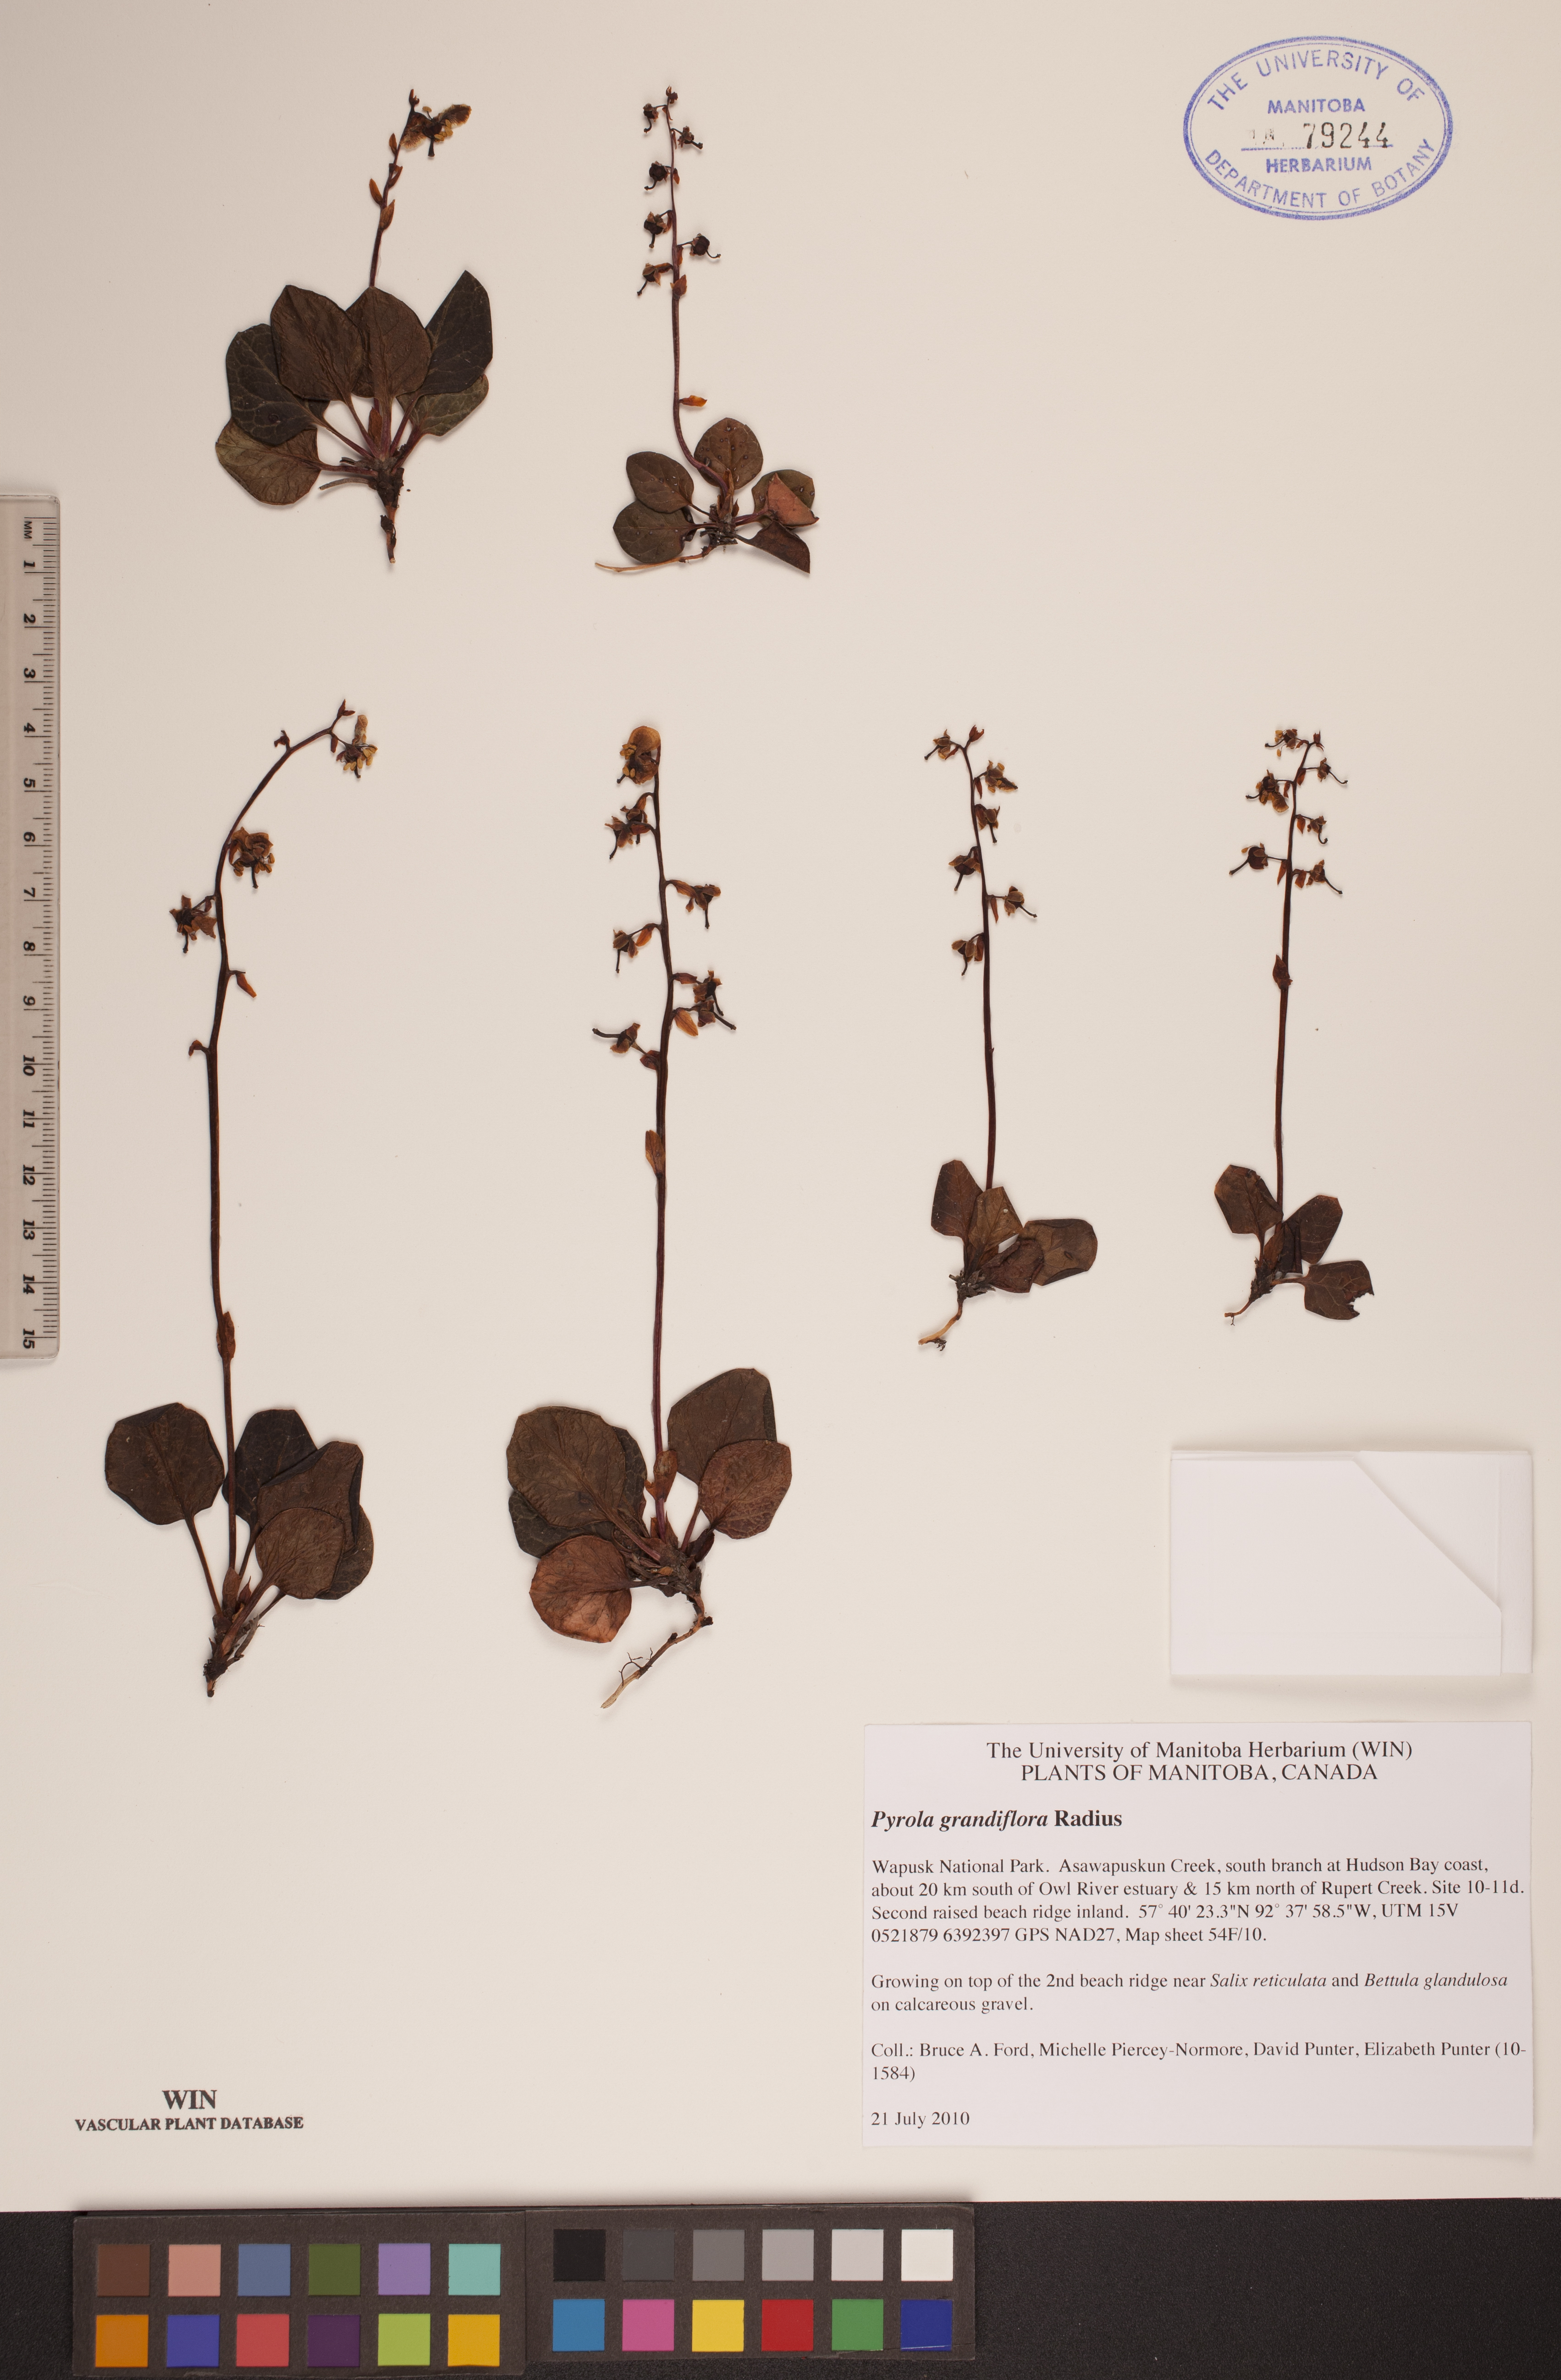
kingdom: Plantae
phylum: Tracheophyta
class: Magnoliopsida
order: Ericales
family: Ericaceae
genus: Pyrola
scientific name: Pyrola grandiflora
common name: Arctic pyrola
